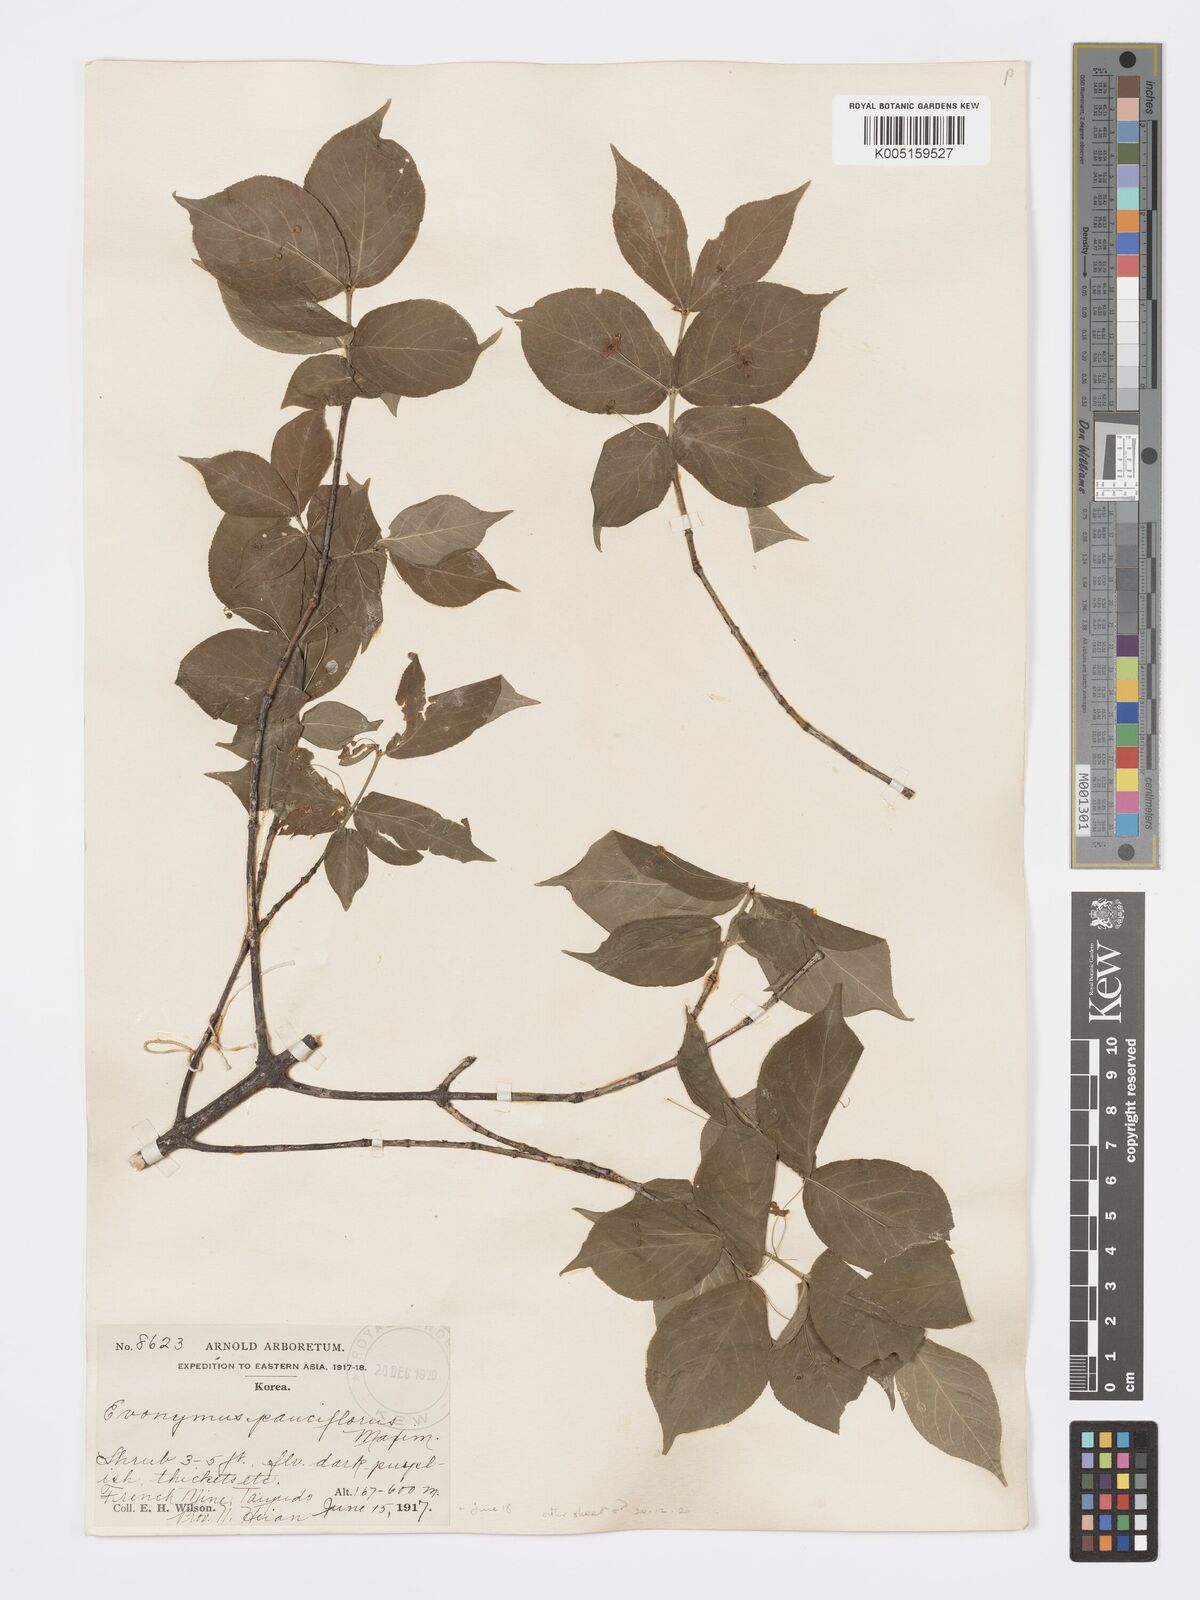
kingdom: Plantae
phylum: Tracheophyta
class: Magnoliopsida
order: Celastrales
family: Celastraceae
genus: Euonymus
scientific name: Euonymus verrucosus
